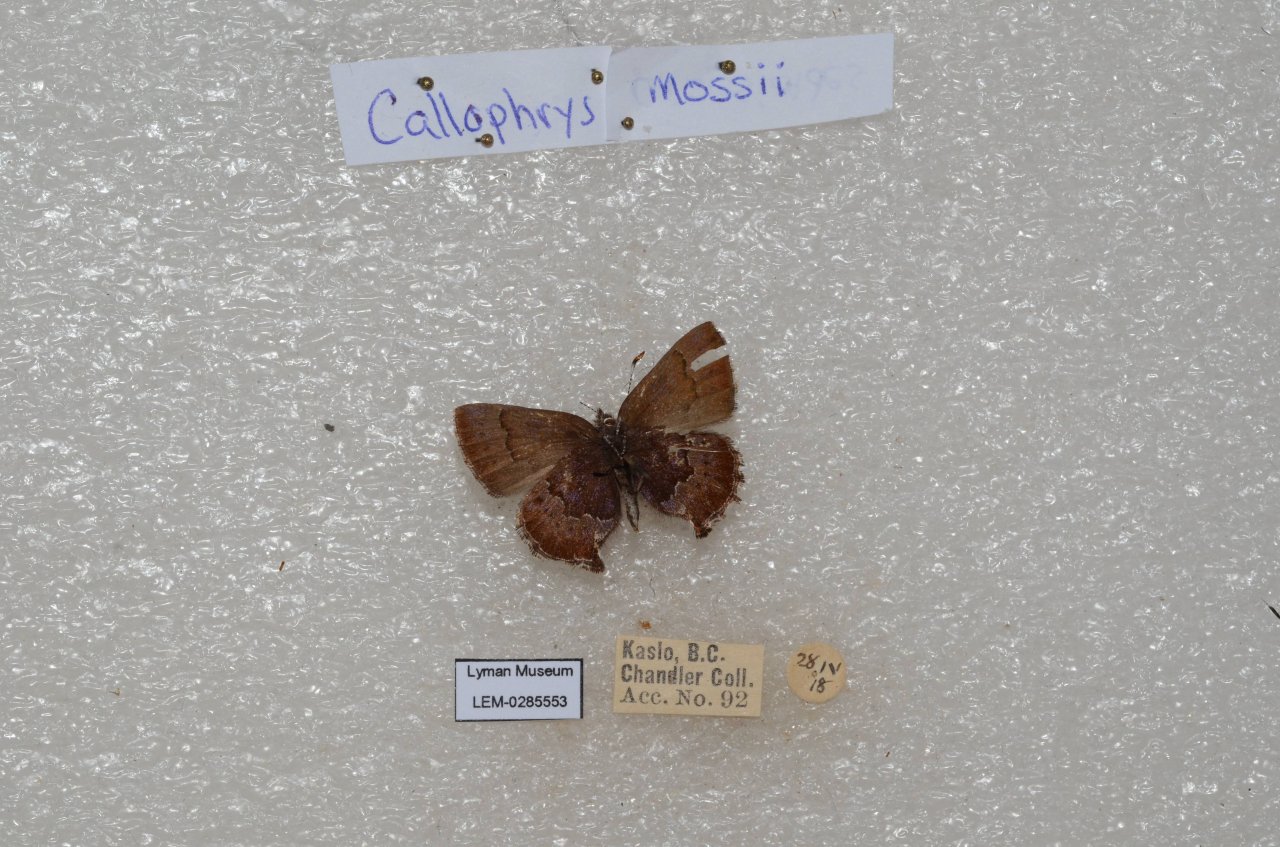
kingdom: Animalia
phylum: Arthropoda
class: Insecta
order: Lepidoptera
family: Lycaenidae
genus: Callophrys
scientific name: Callophrys mossii
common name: Moss' Elfin
